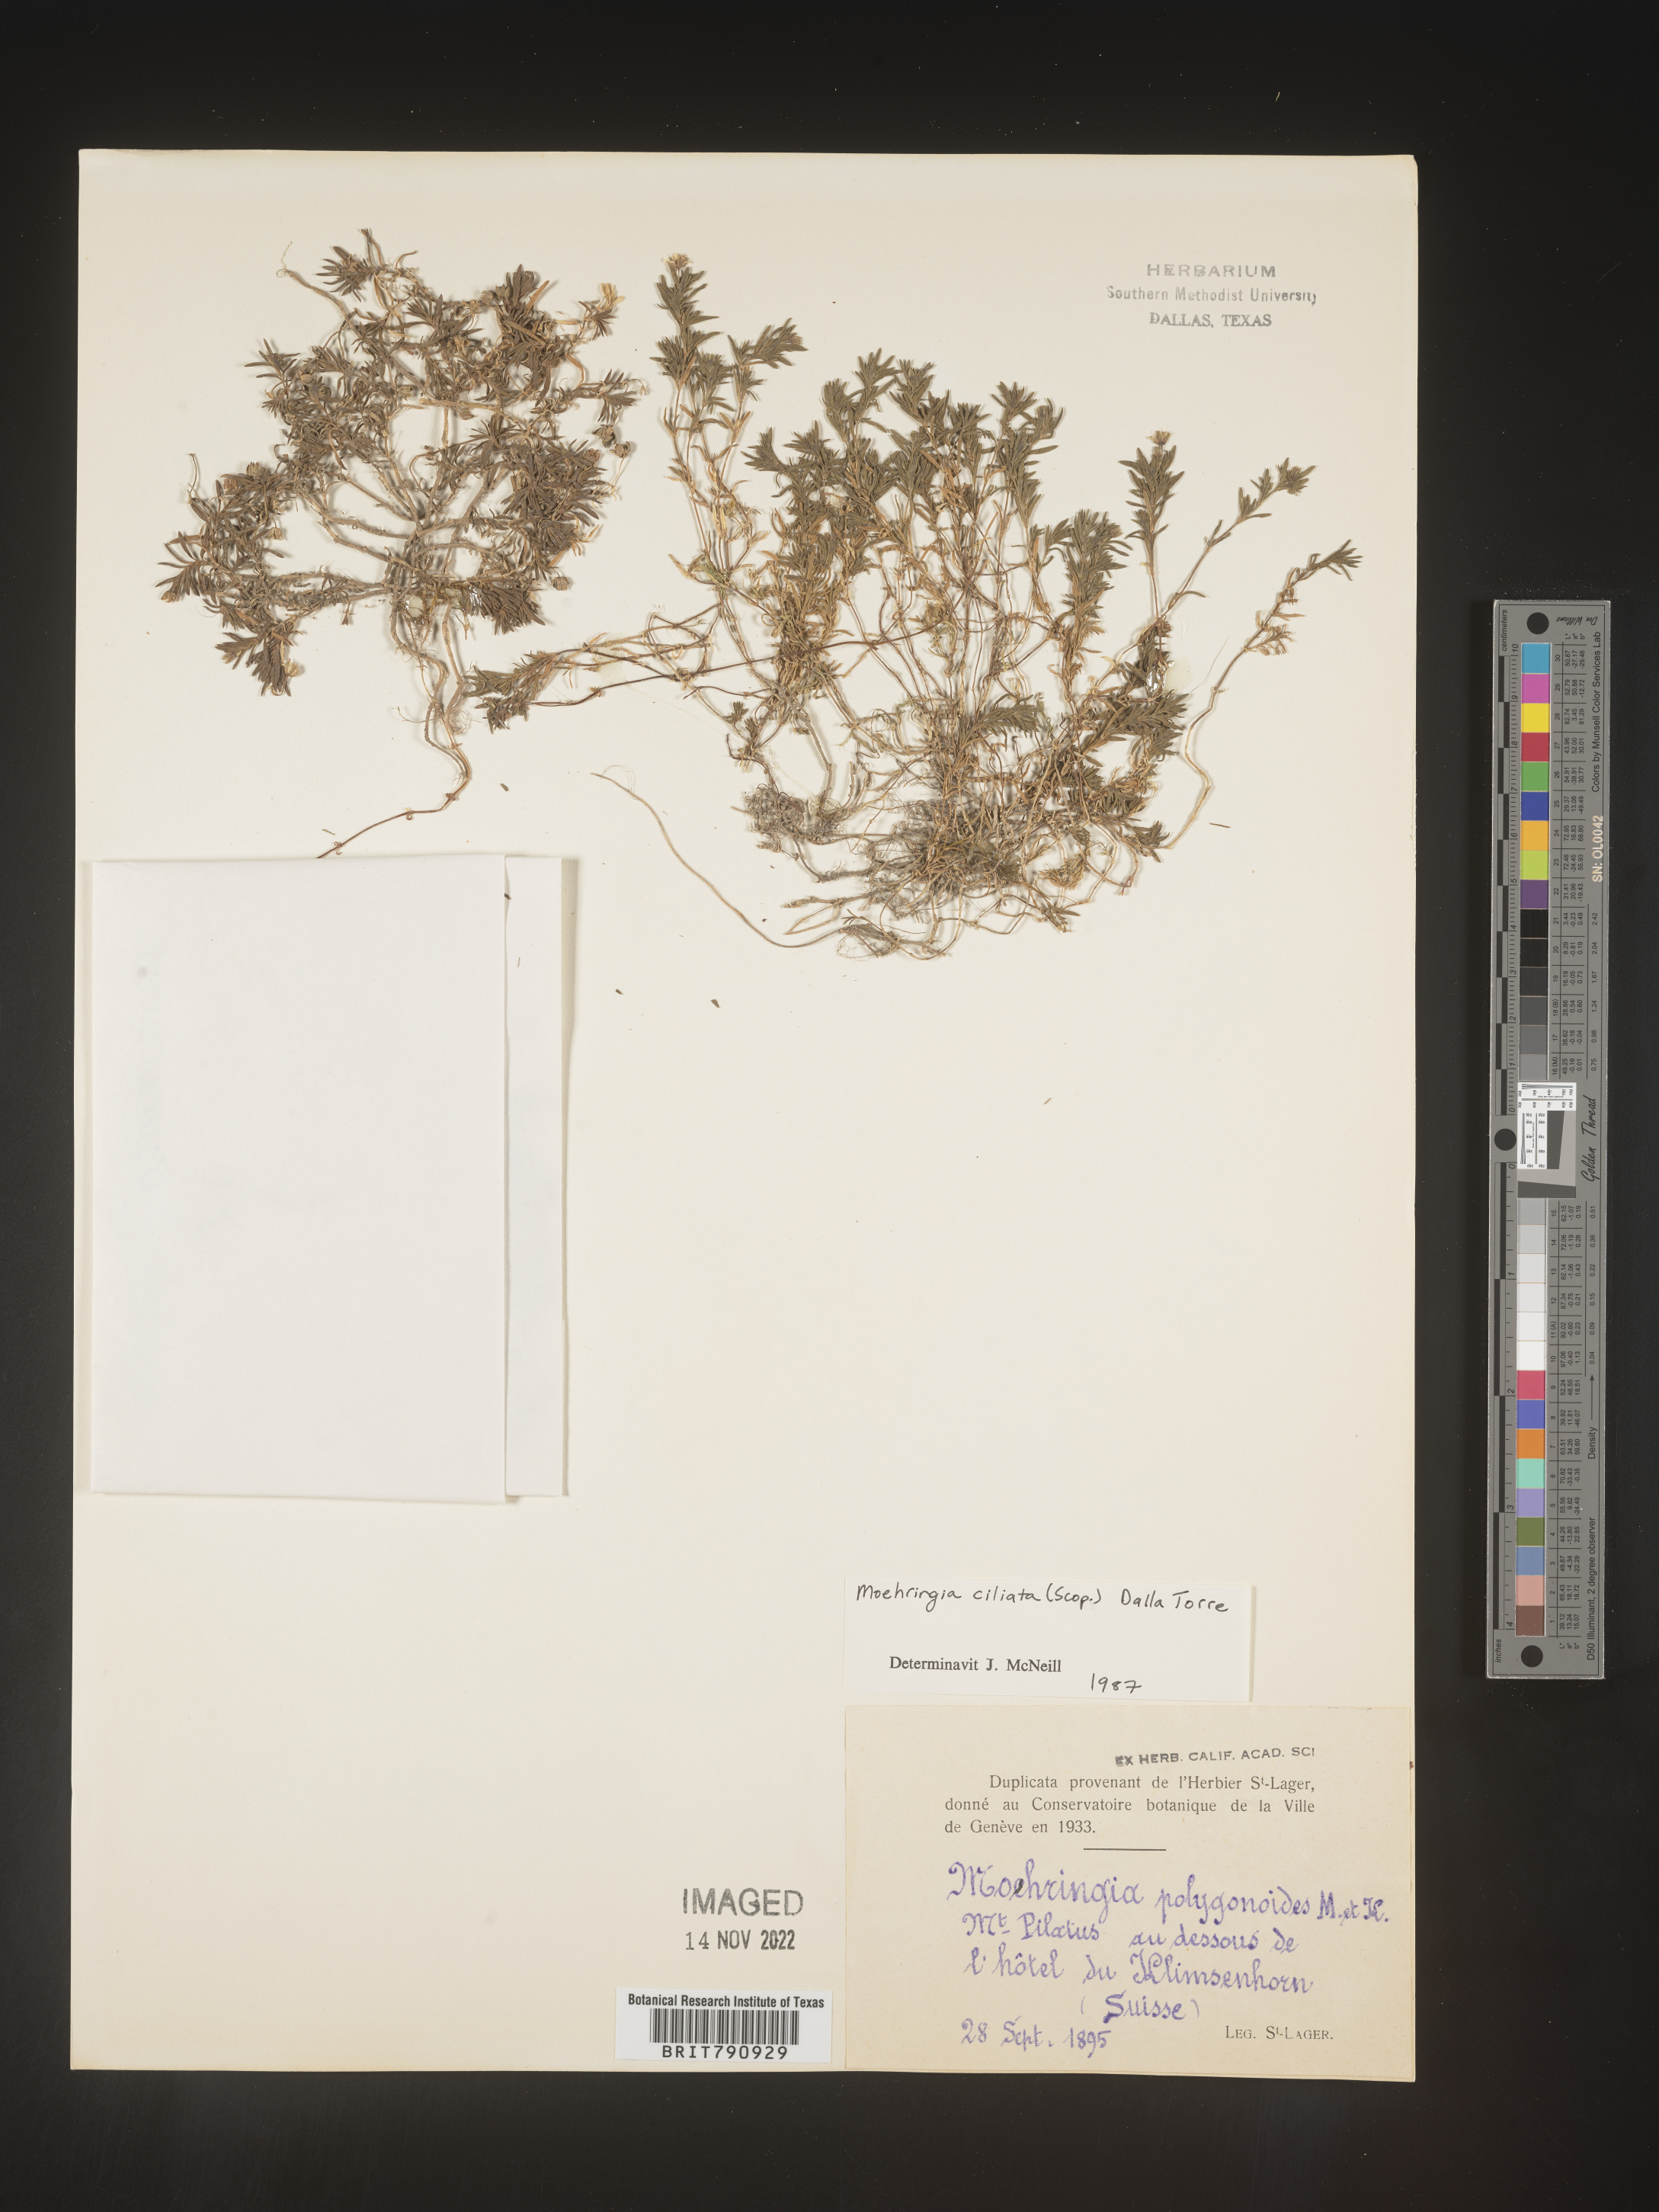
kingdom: Plantae
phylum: Tracheophyta
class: Magnoliopsida
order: Caryophyllales
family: Caryophyllaceae
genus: Moehringia
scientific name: Moehringia
